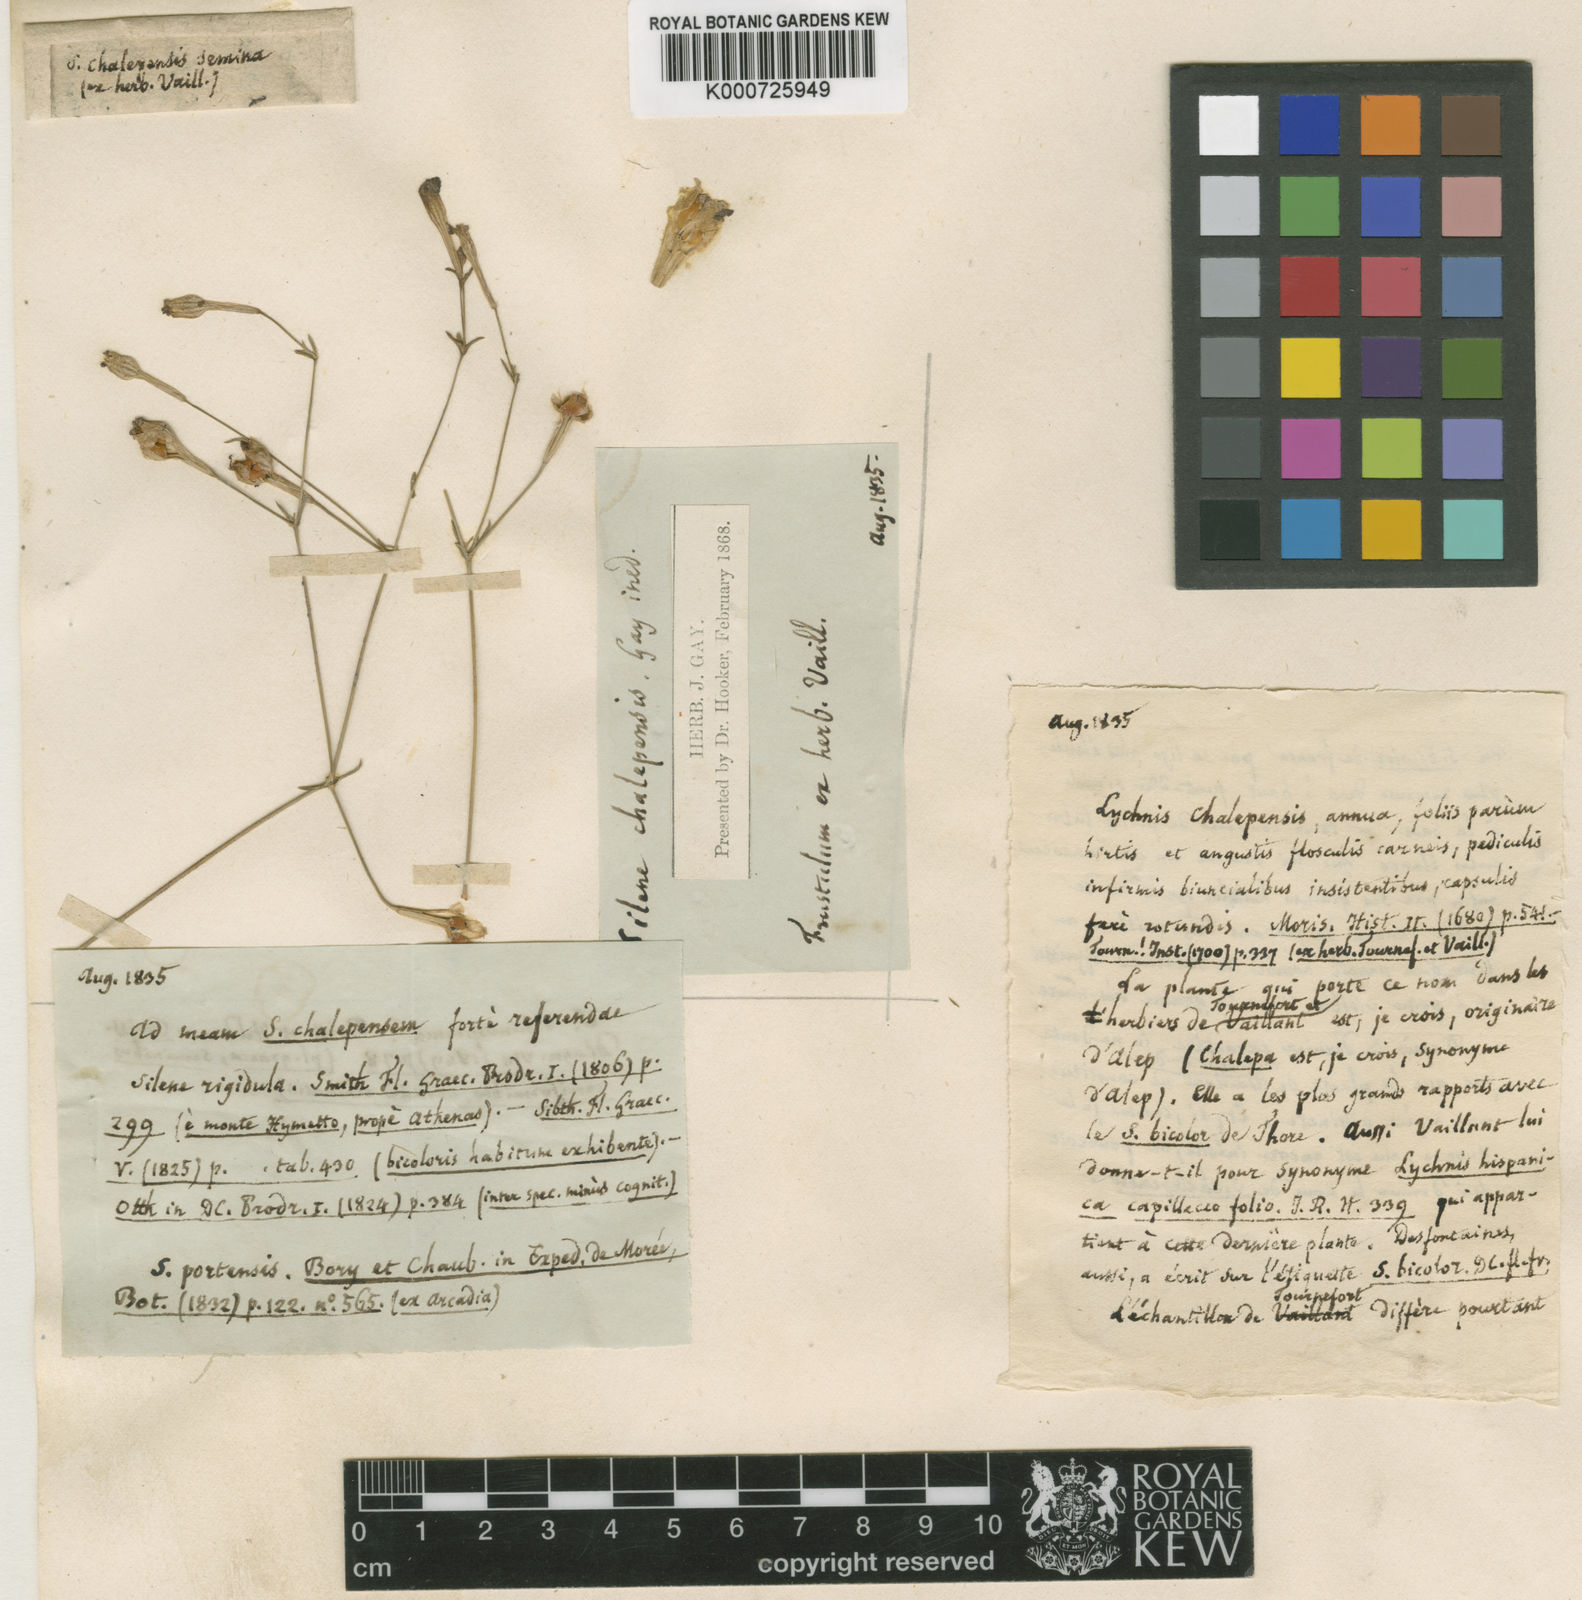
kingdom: Plantae
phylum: Tracheophyta
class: Magnoliopsida
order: Caryophyllales
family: Caryophyllaceae
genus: Silene
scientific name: Silene echinosperma
